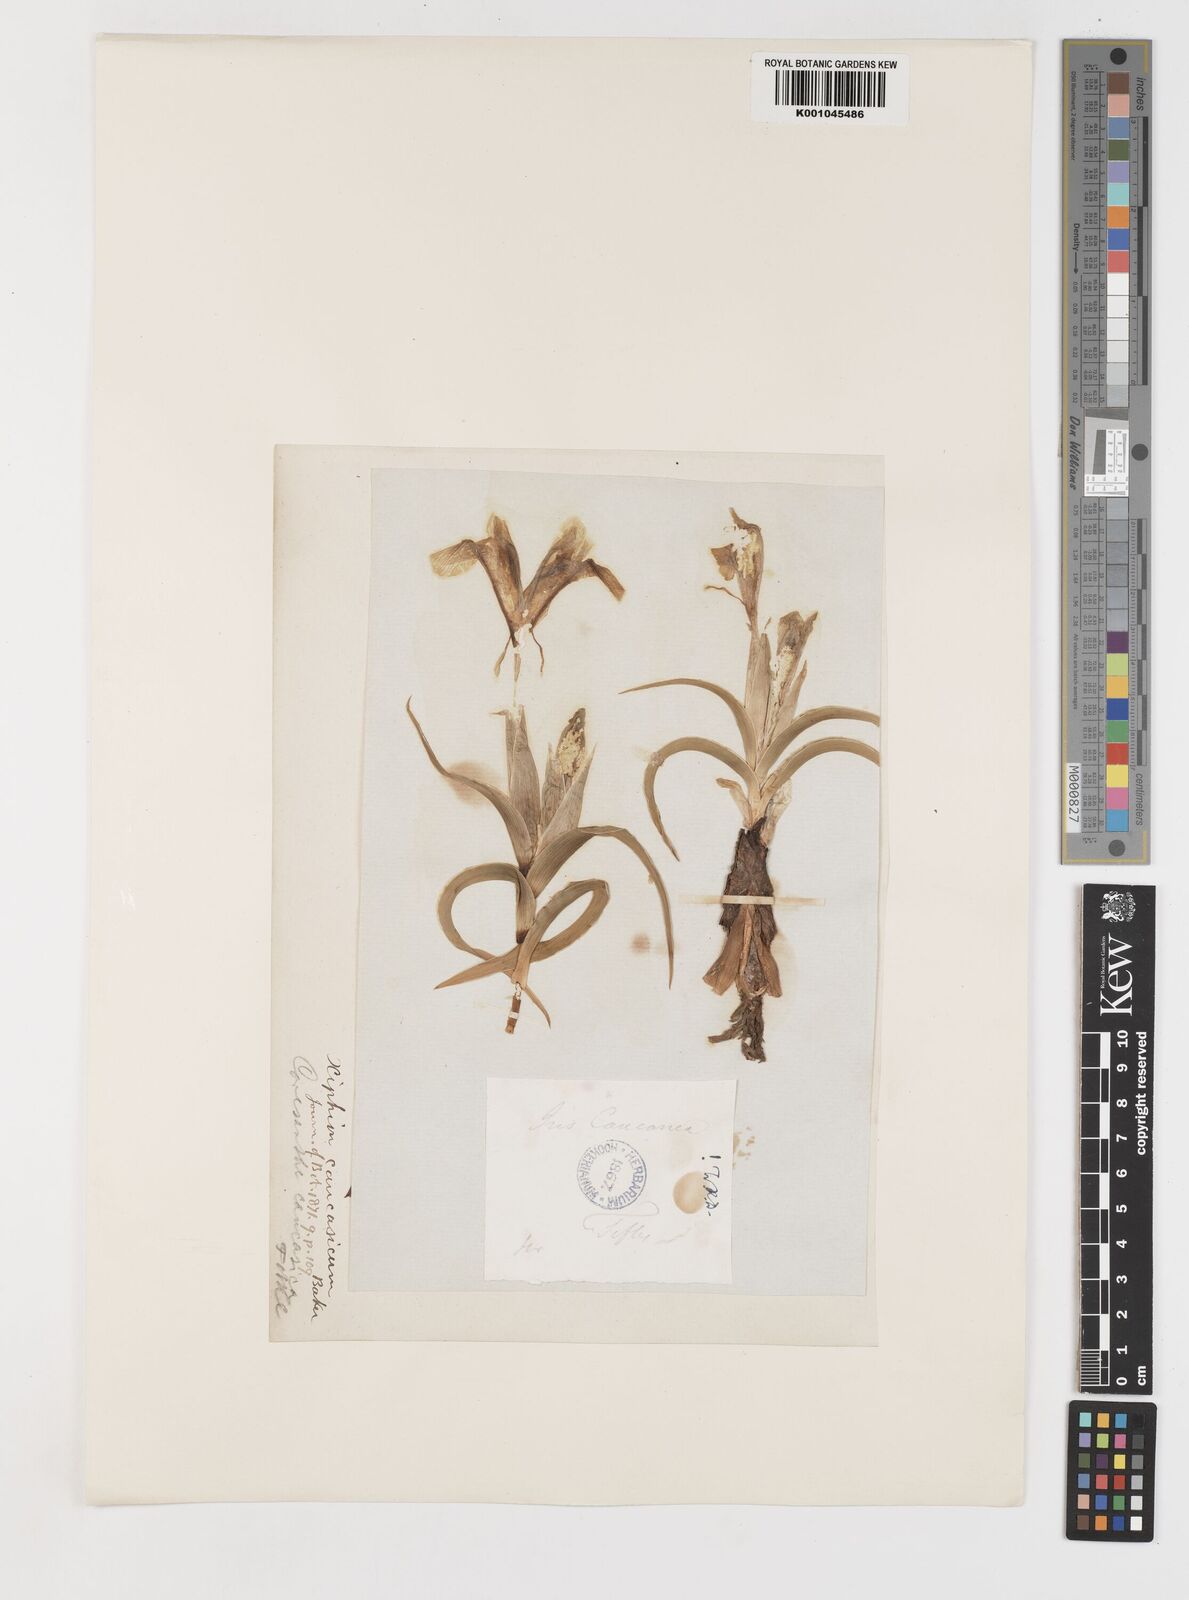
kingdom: Plantae
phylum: Tracheophyta
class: Liliopsida
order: Asparagales
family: Iridaceae
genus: Iris
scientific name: Iris
